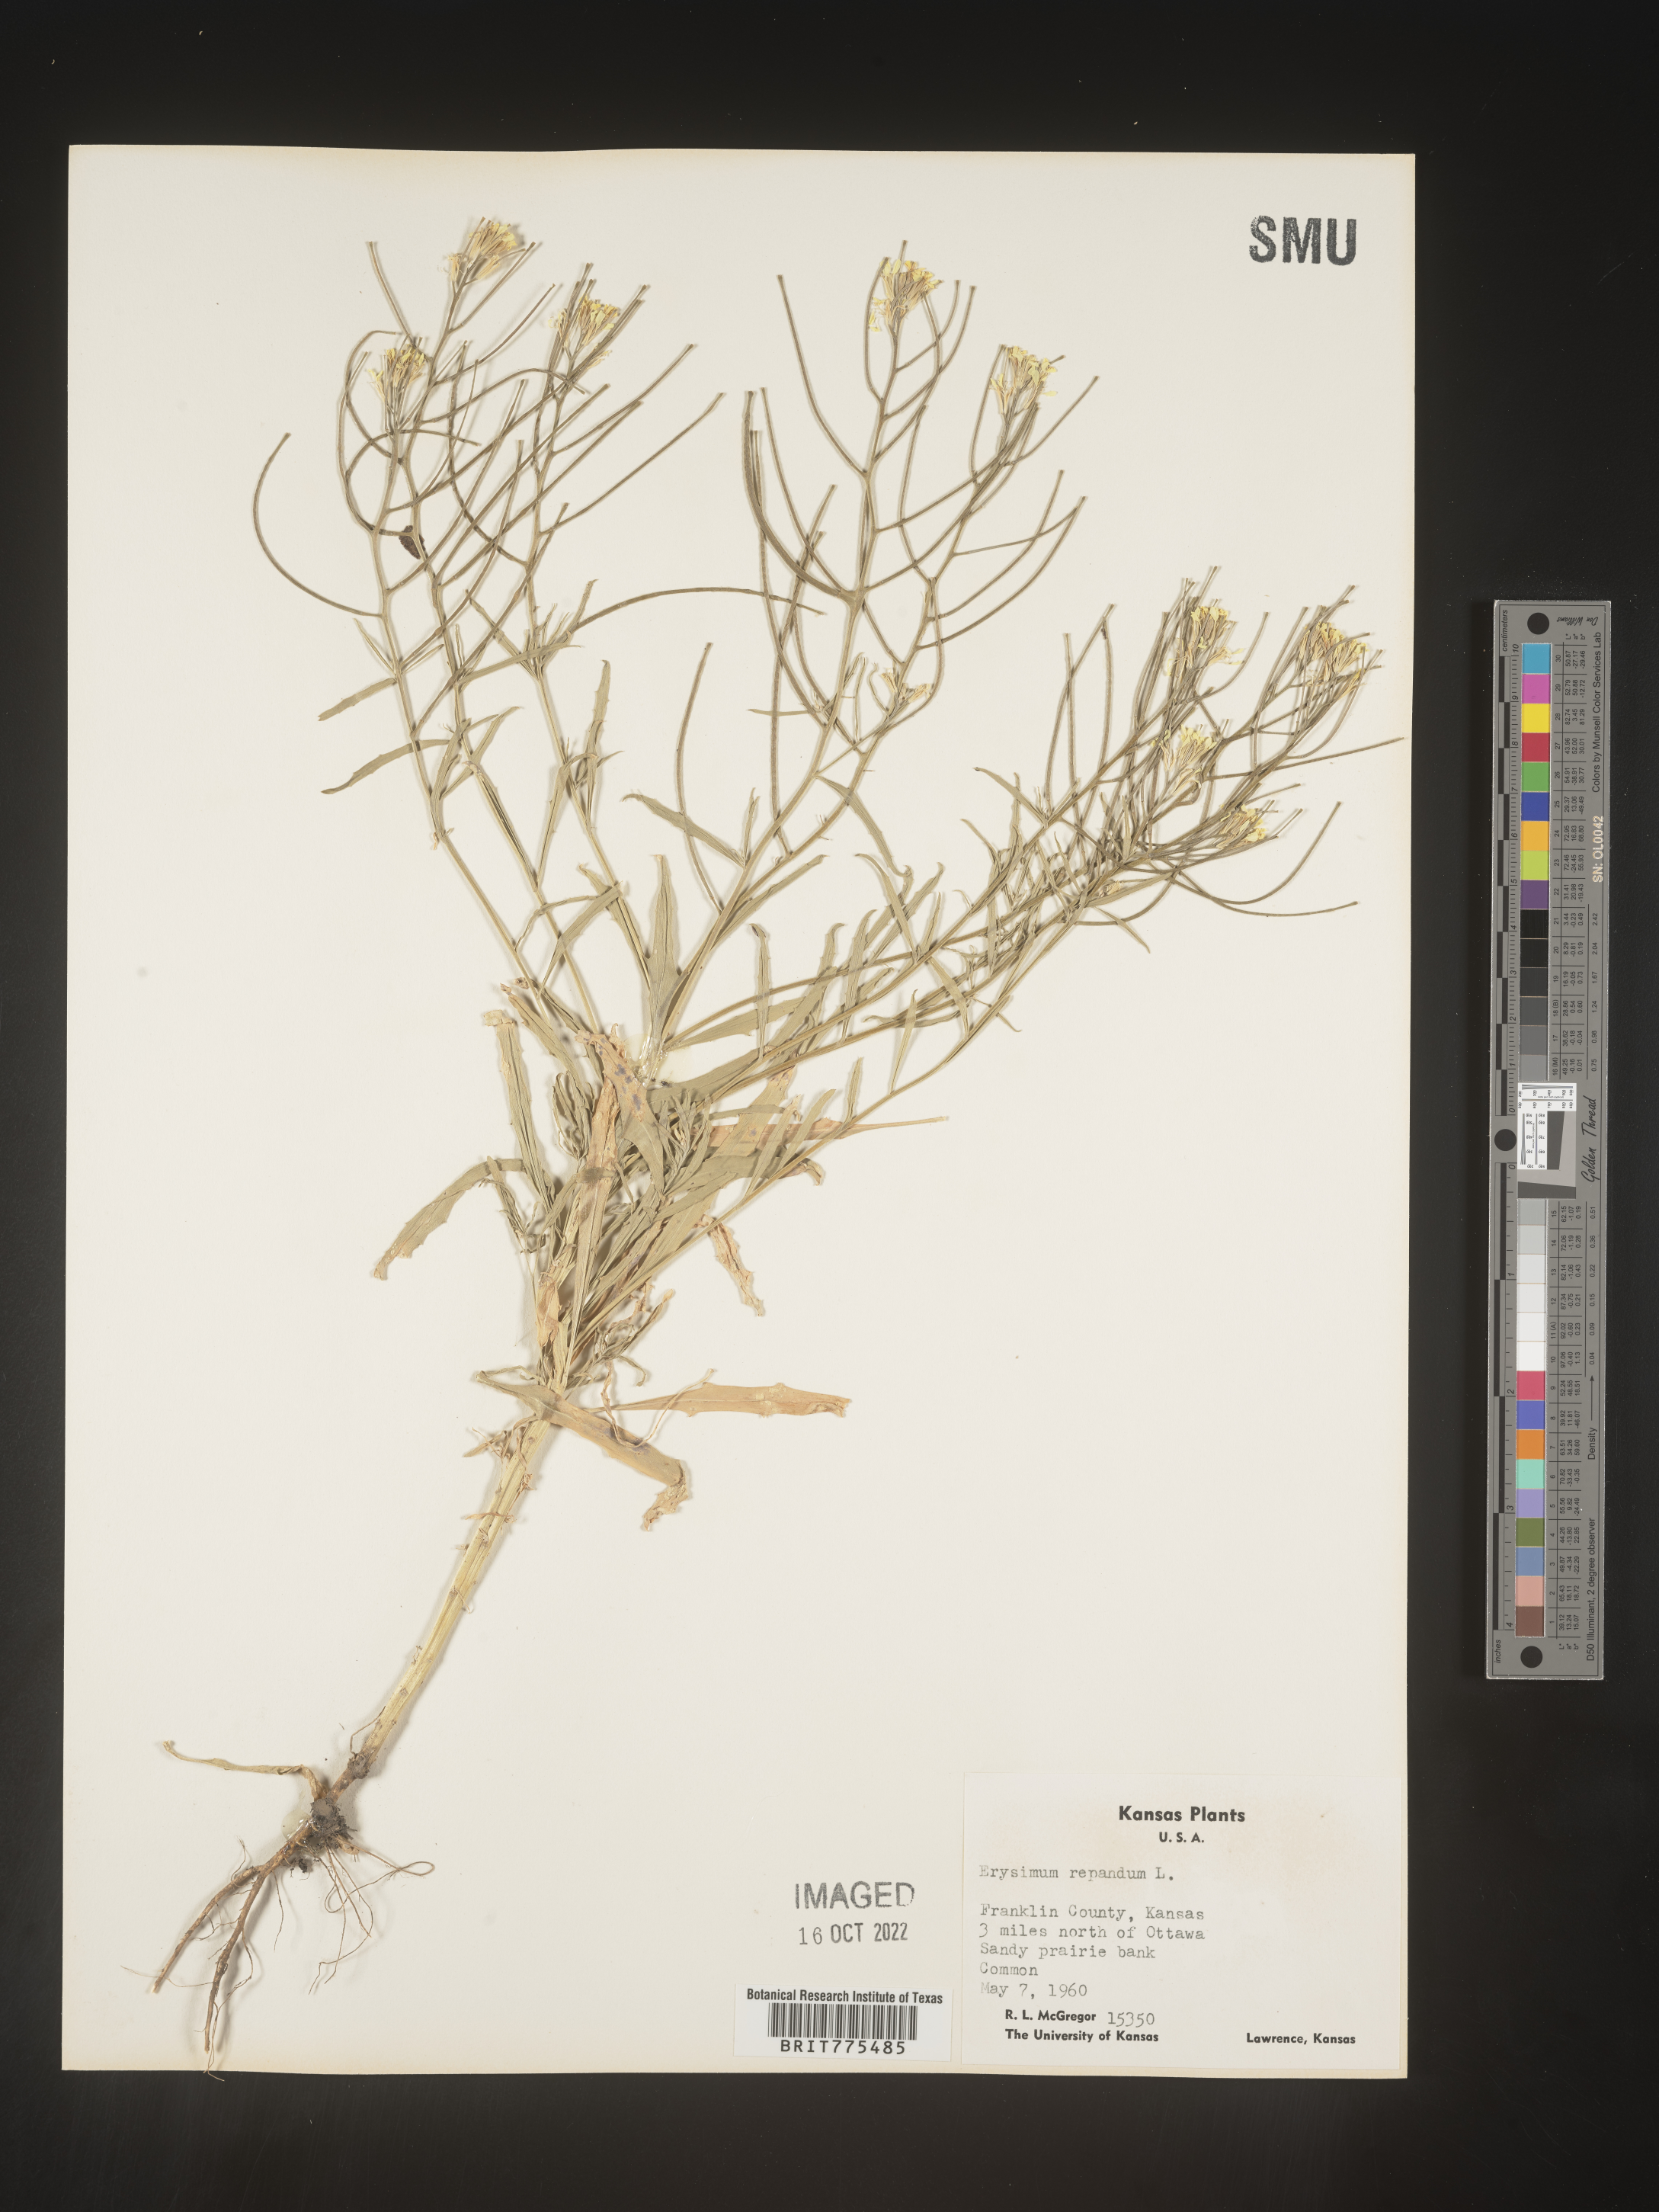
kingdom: Plantae
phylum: Tracheophyta
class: Magnoliopsida
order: Brassicales
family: Brassicaceae
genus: Erysimum
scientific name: Erysimum repandum
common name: Spreading wallflower
